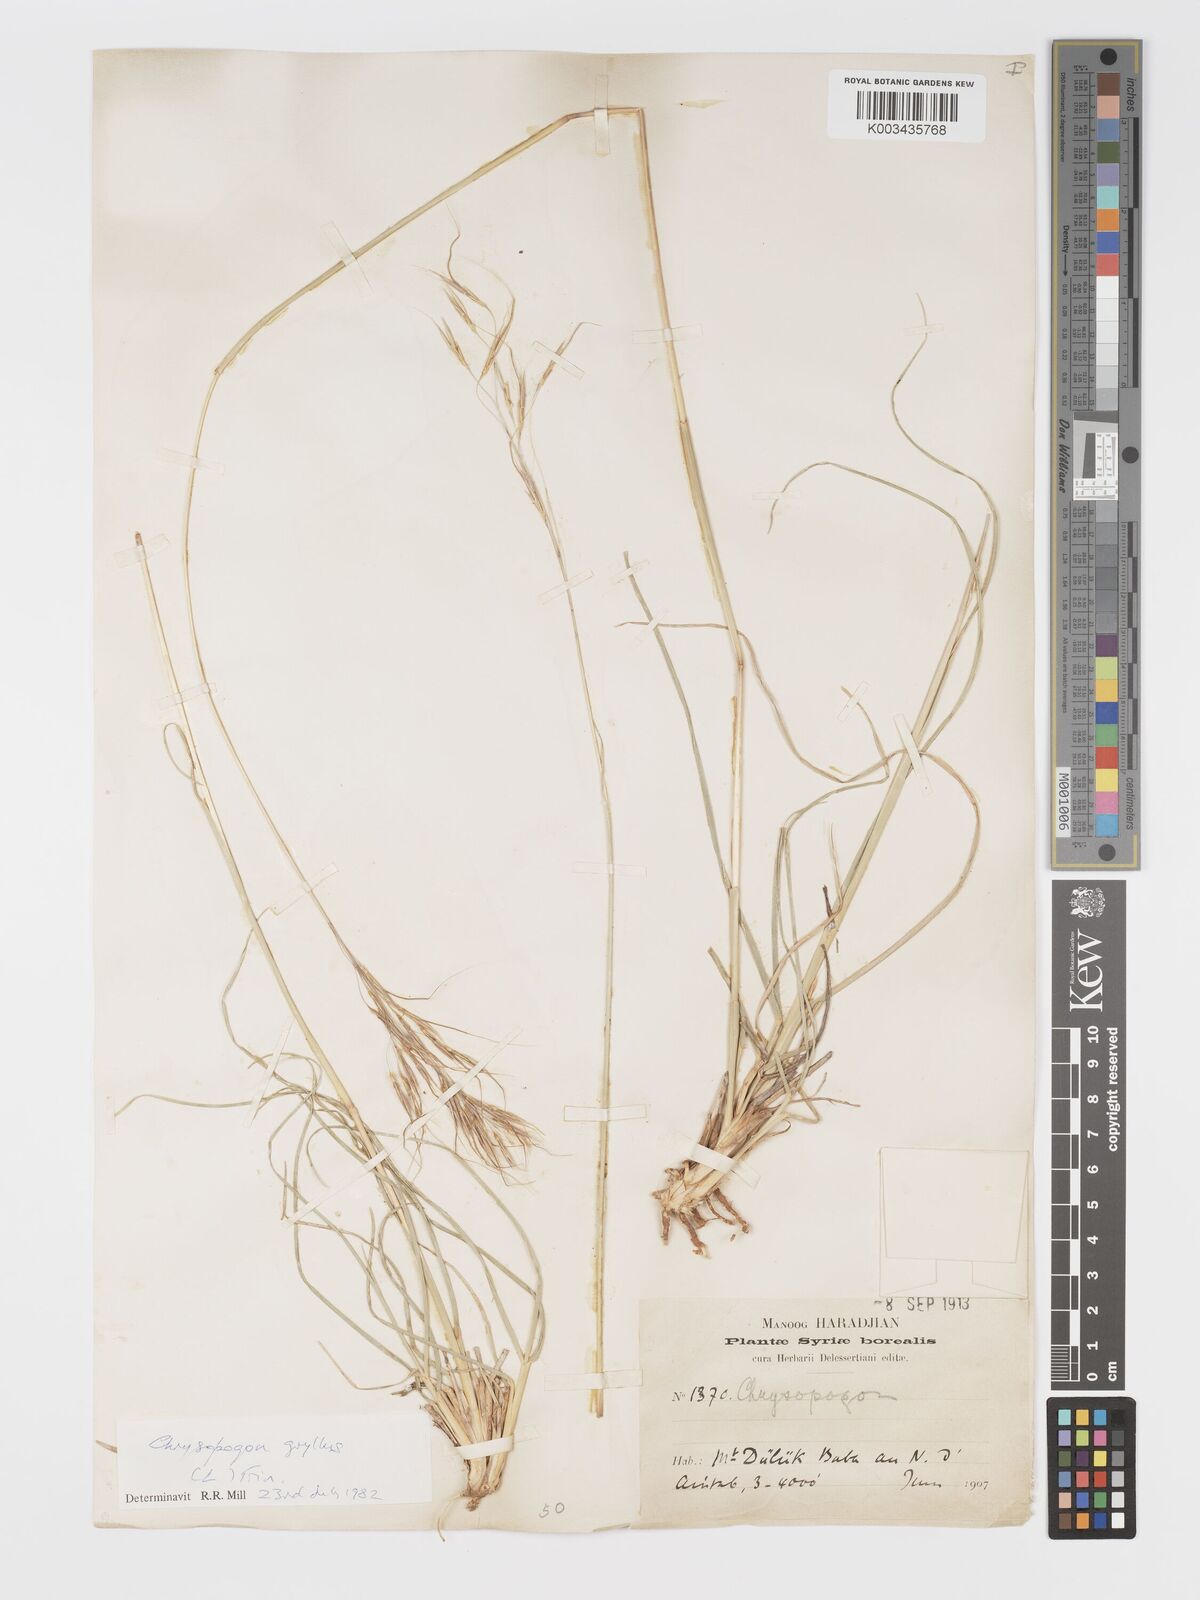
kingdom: Plantae
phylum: Tracheophyta
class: Liliopsida
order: Poales
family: Poaceae
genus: Chrysopogon
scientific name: Chrysopogon gryllus
